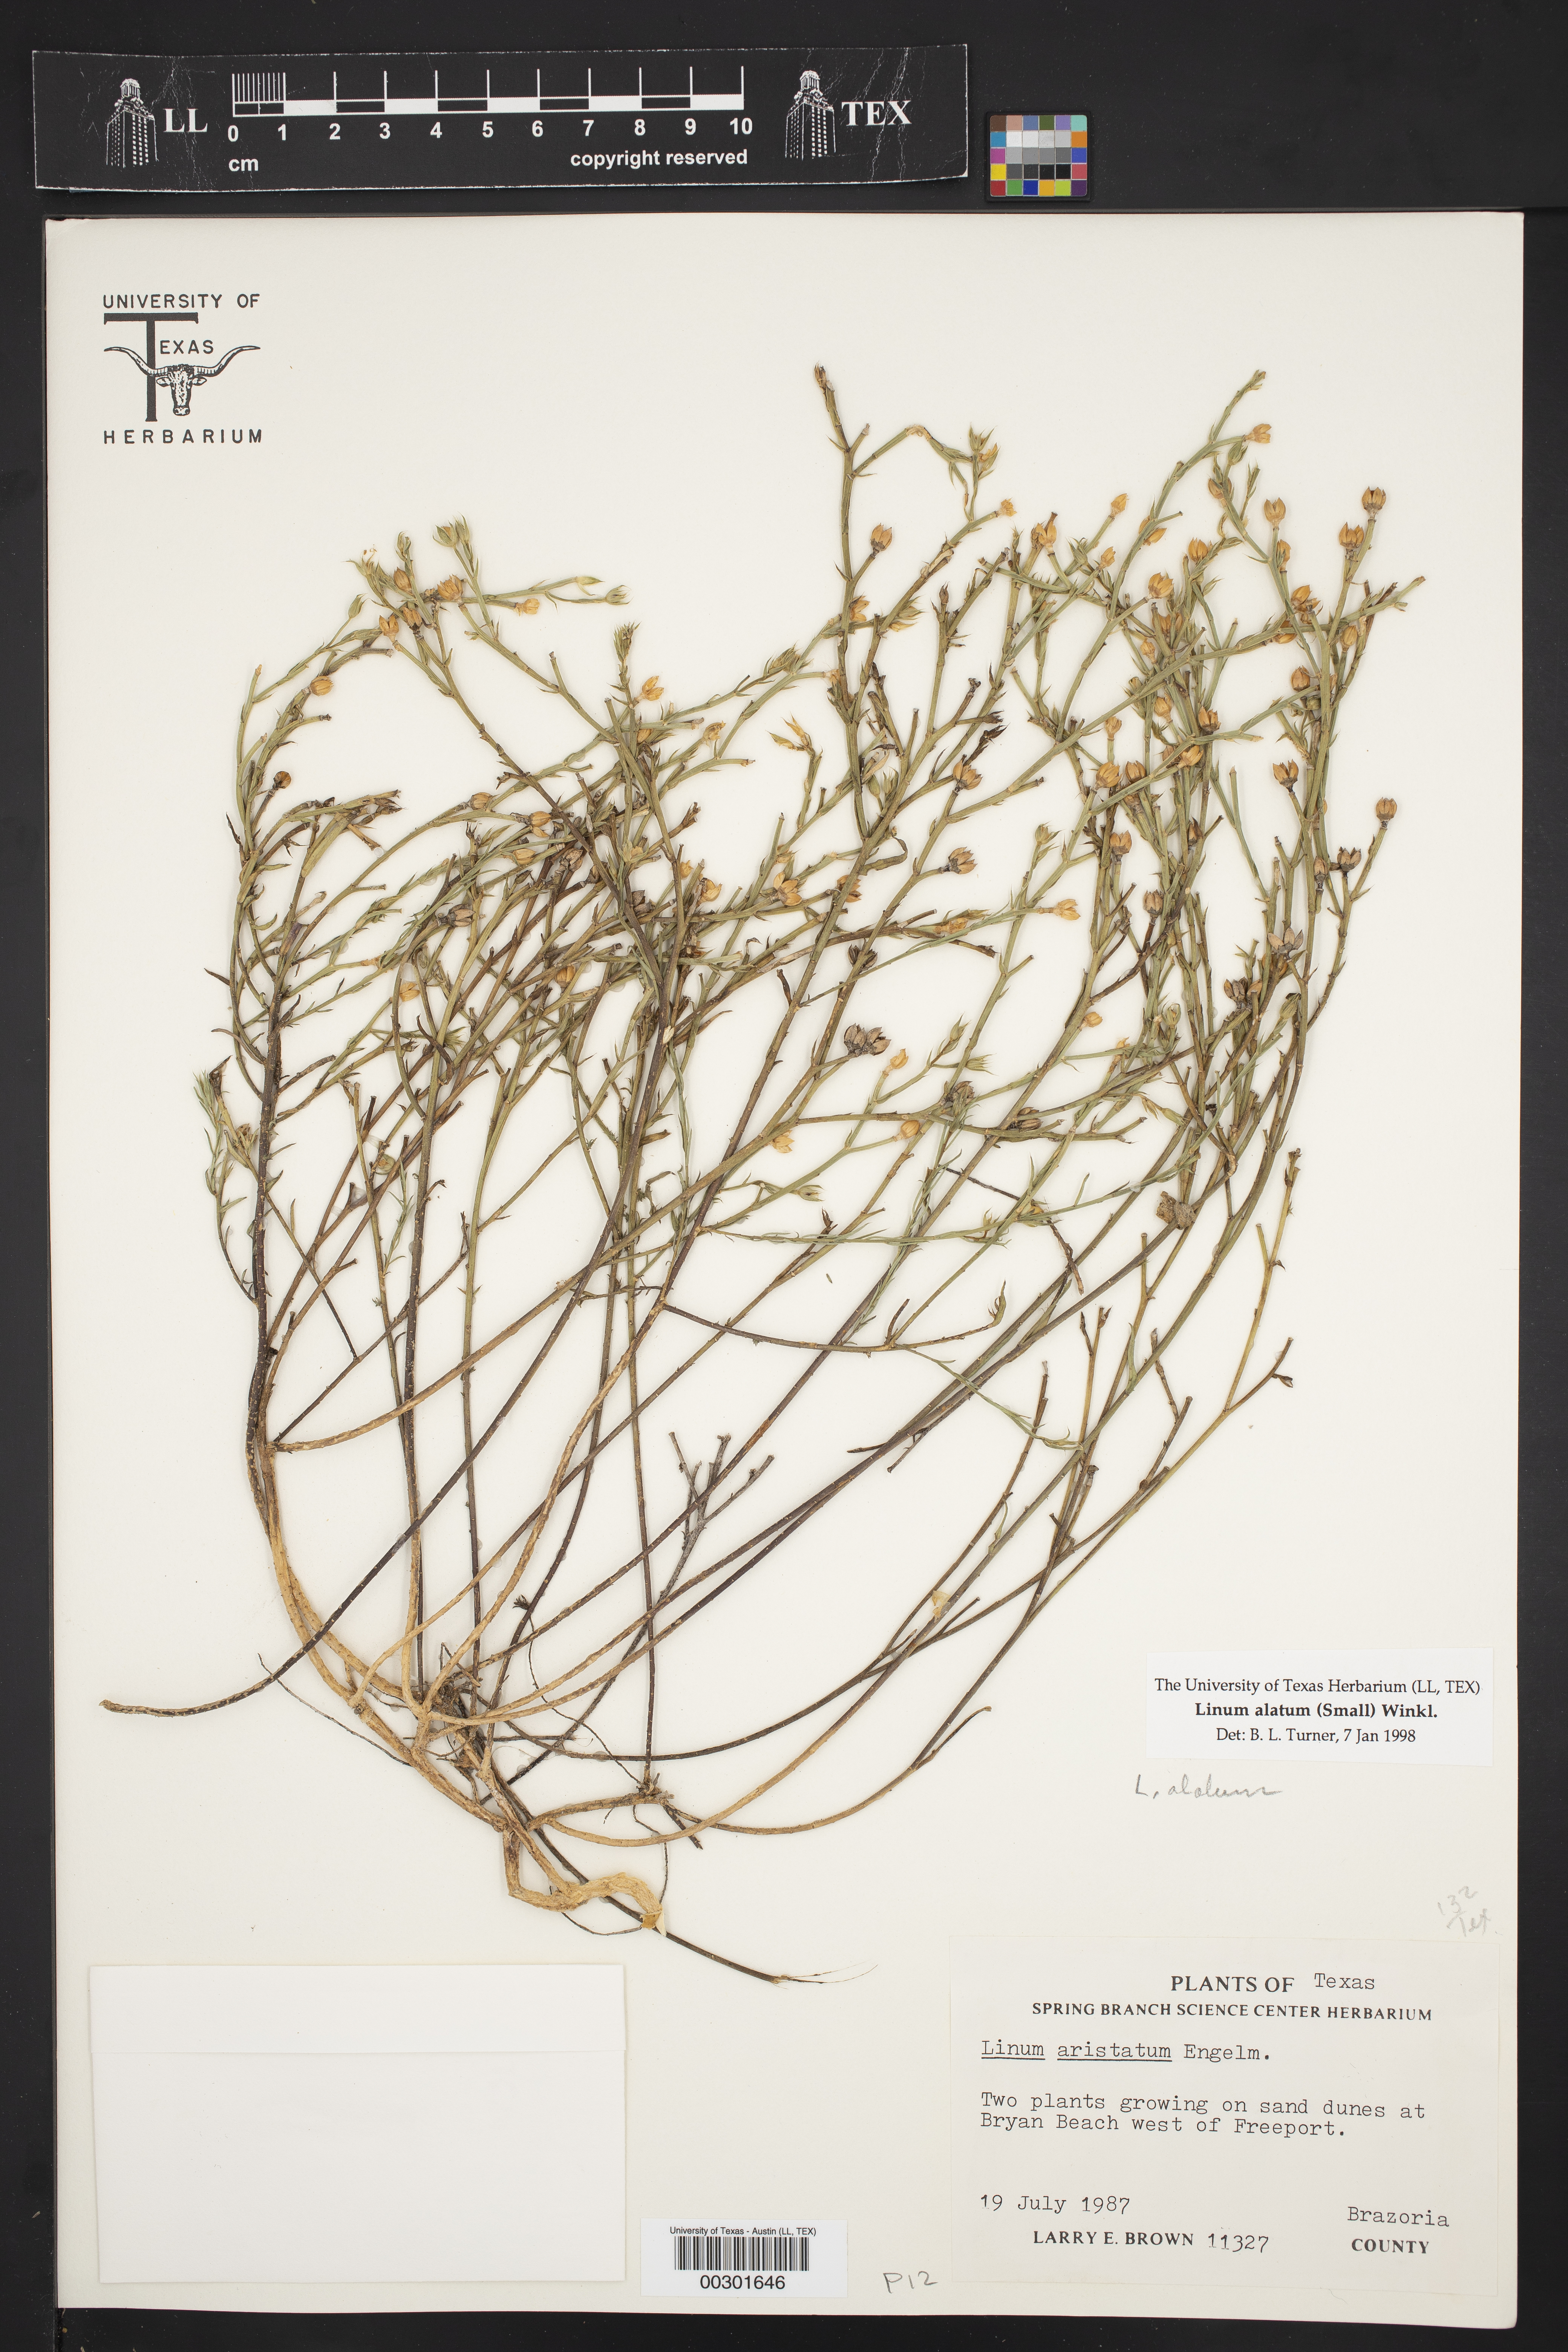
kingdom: Plantae
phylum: Tracheophyta
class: Magnoliopsida
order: Malpighiales
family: Linaceae
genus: Linum
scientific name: Linum alatum
